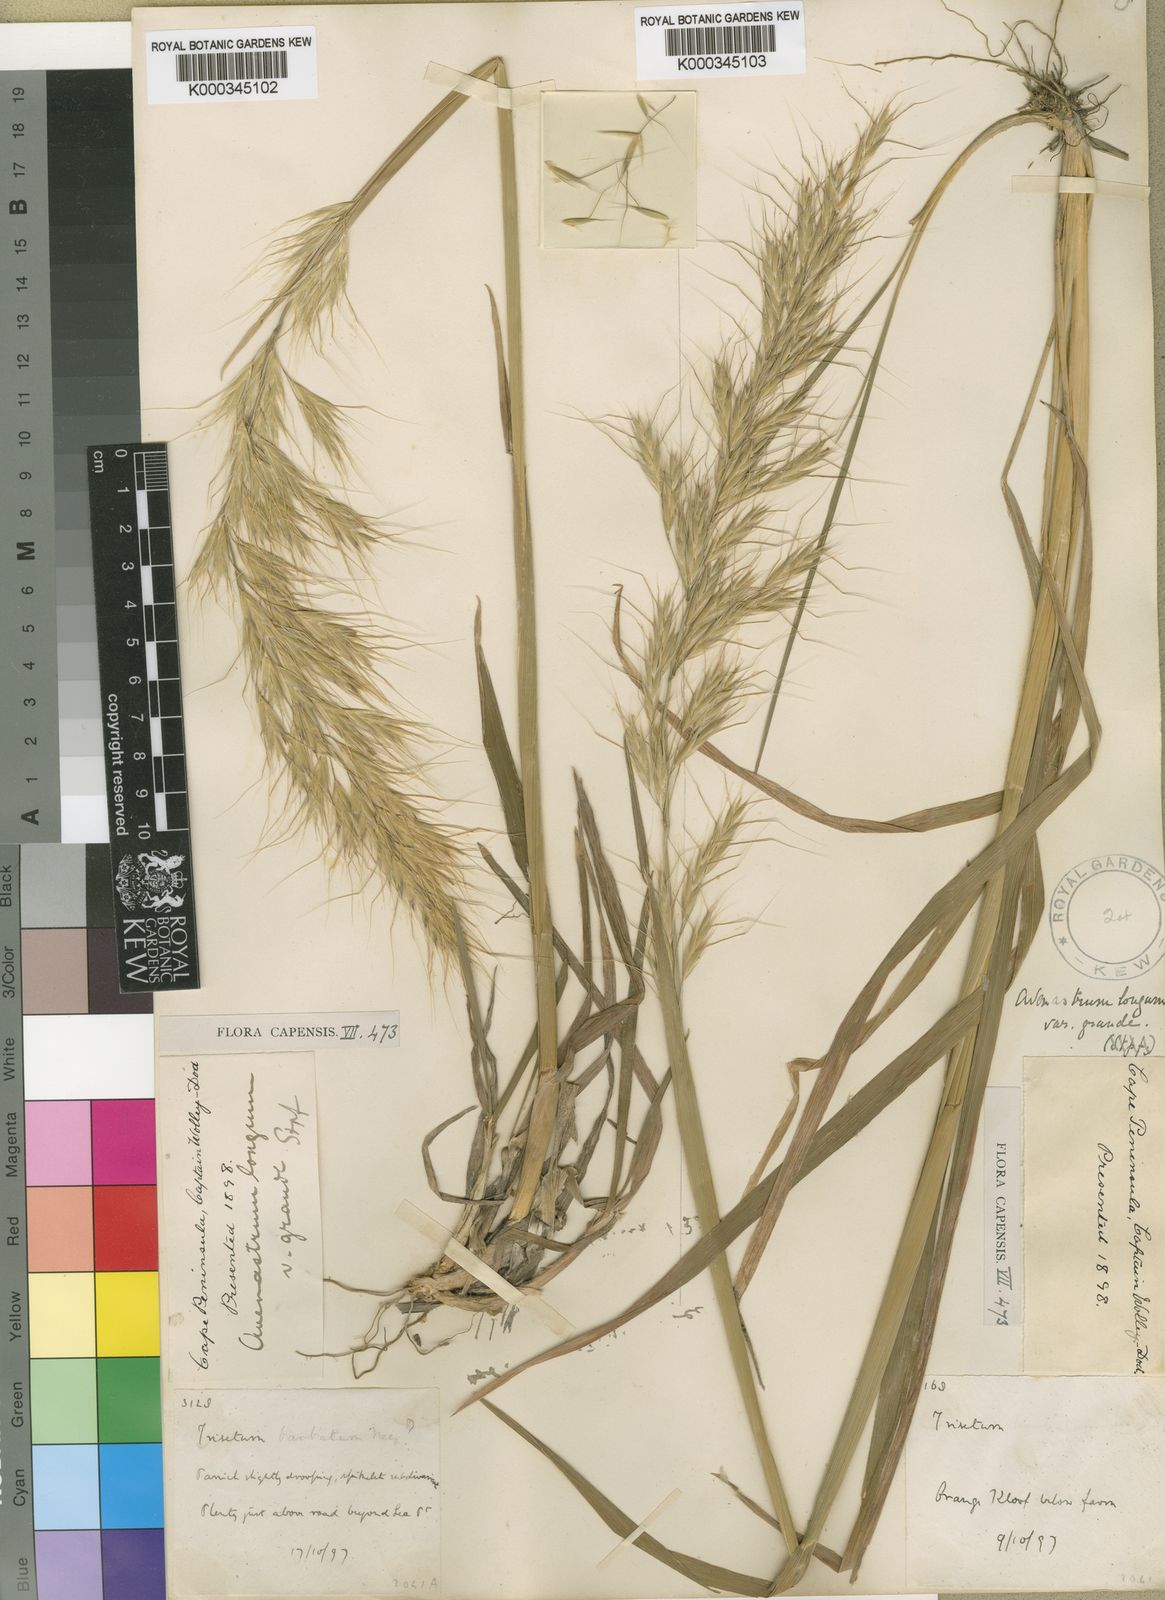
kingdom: Plantae
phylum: Tracheophyta
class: Liliopsida
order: Poales
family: Poaceae
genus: Trisetopsis
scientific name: Trisetopsis longa
